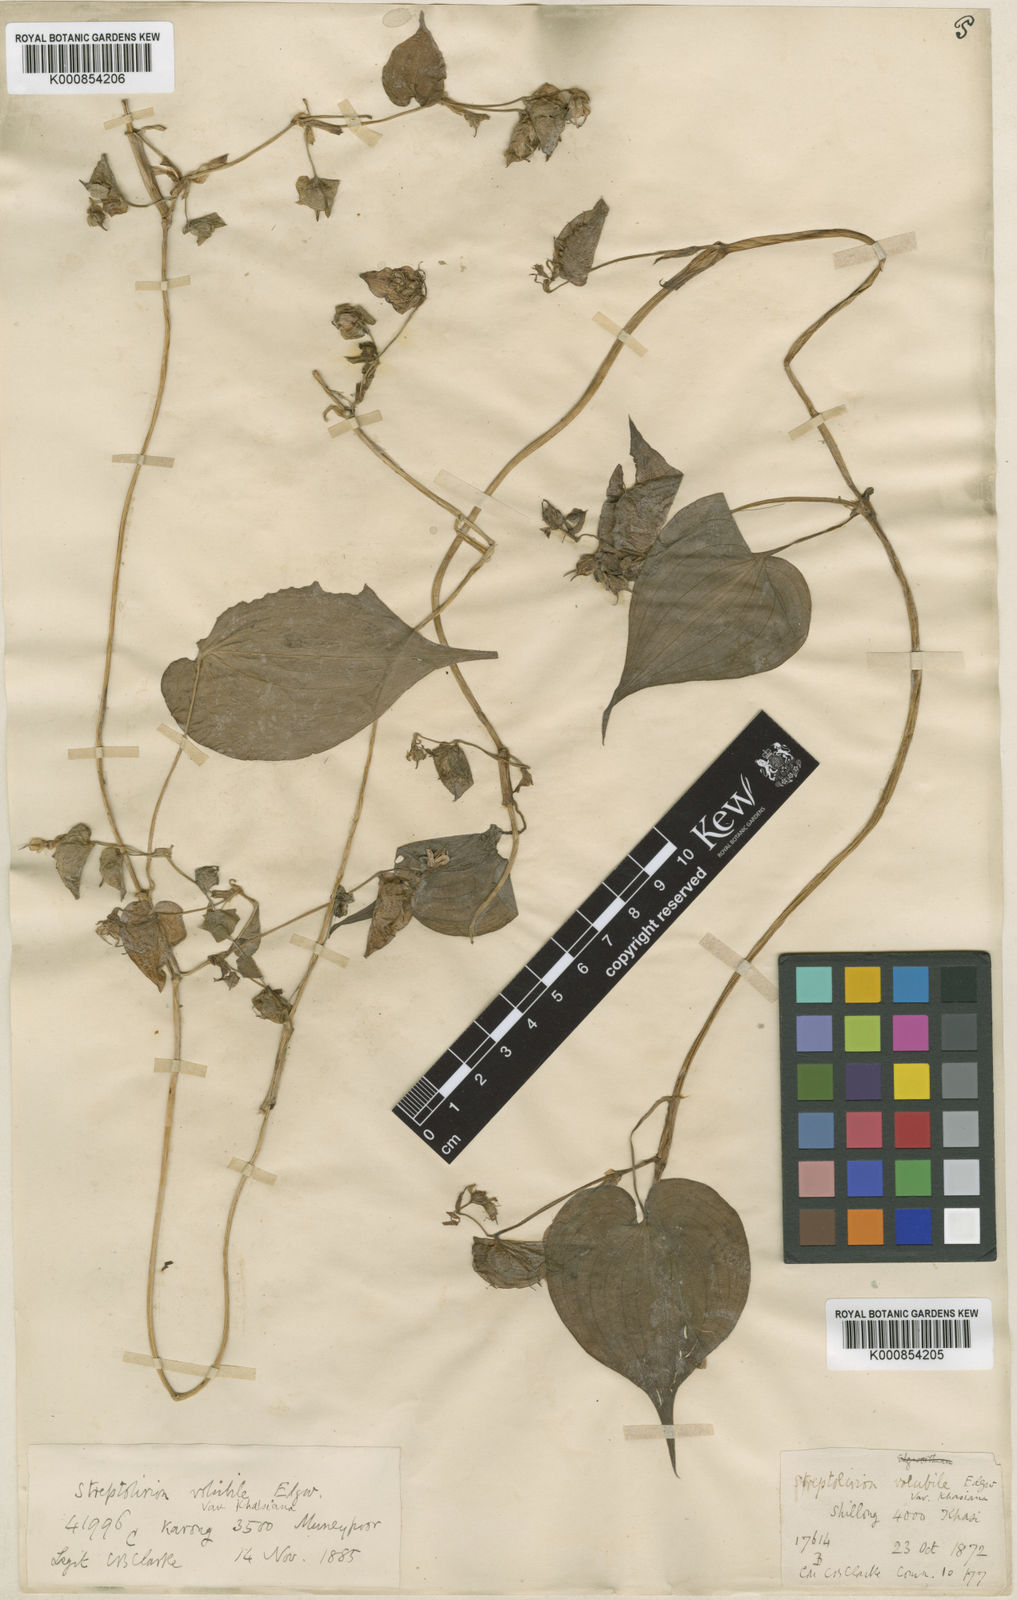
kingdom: Plantae
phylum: Tracheophyta
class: Liliopsida
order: Commelinales
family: Commelinaceae
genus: Streptolirion
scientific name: Streptolirion volubile
